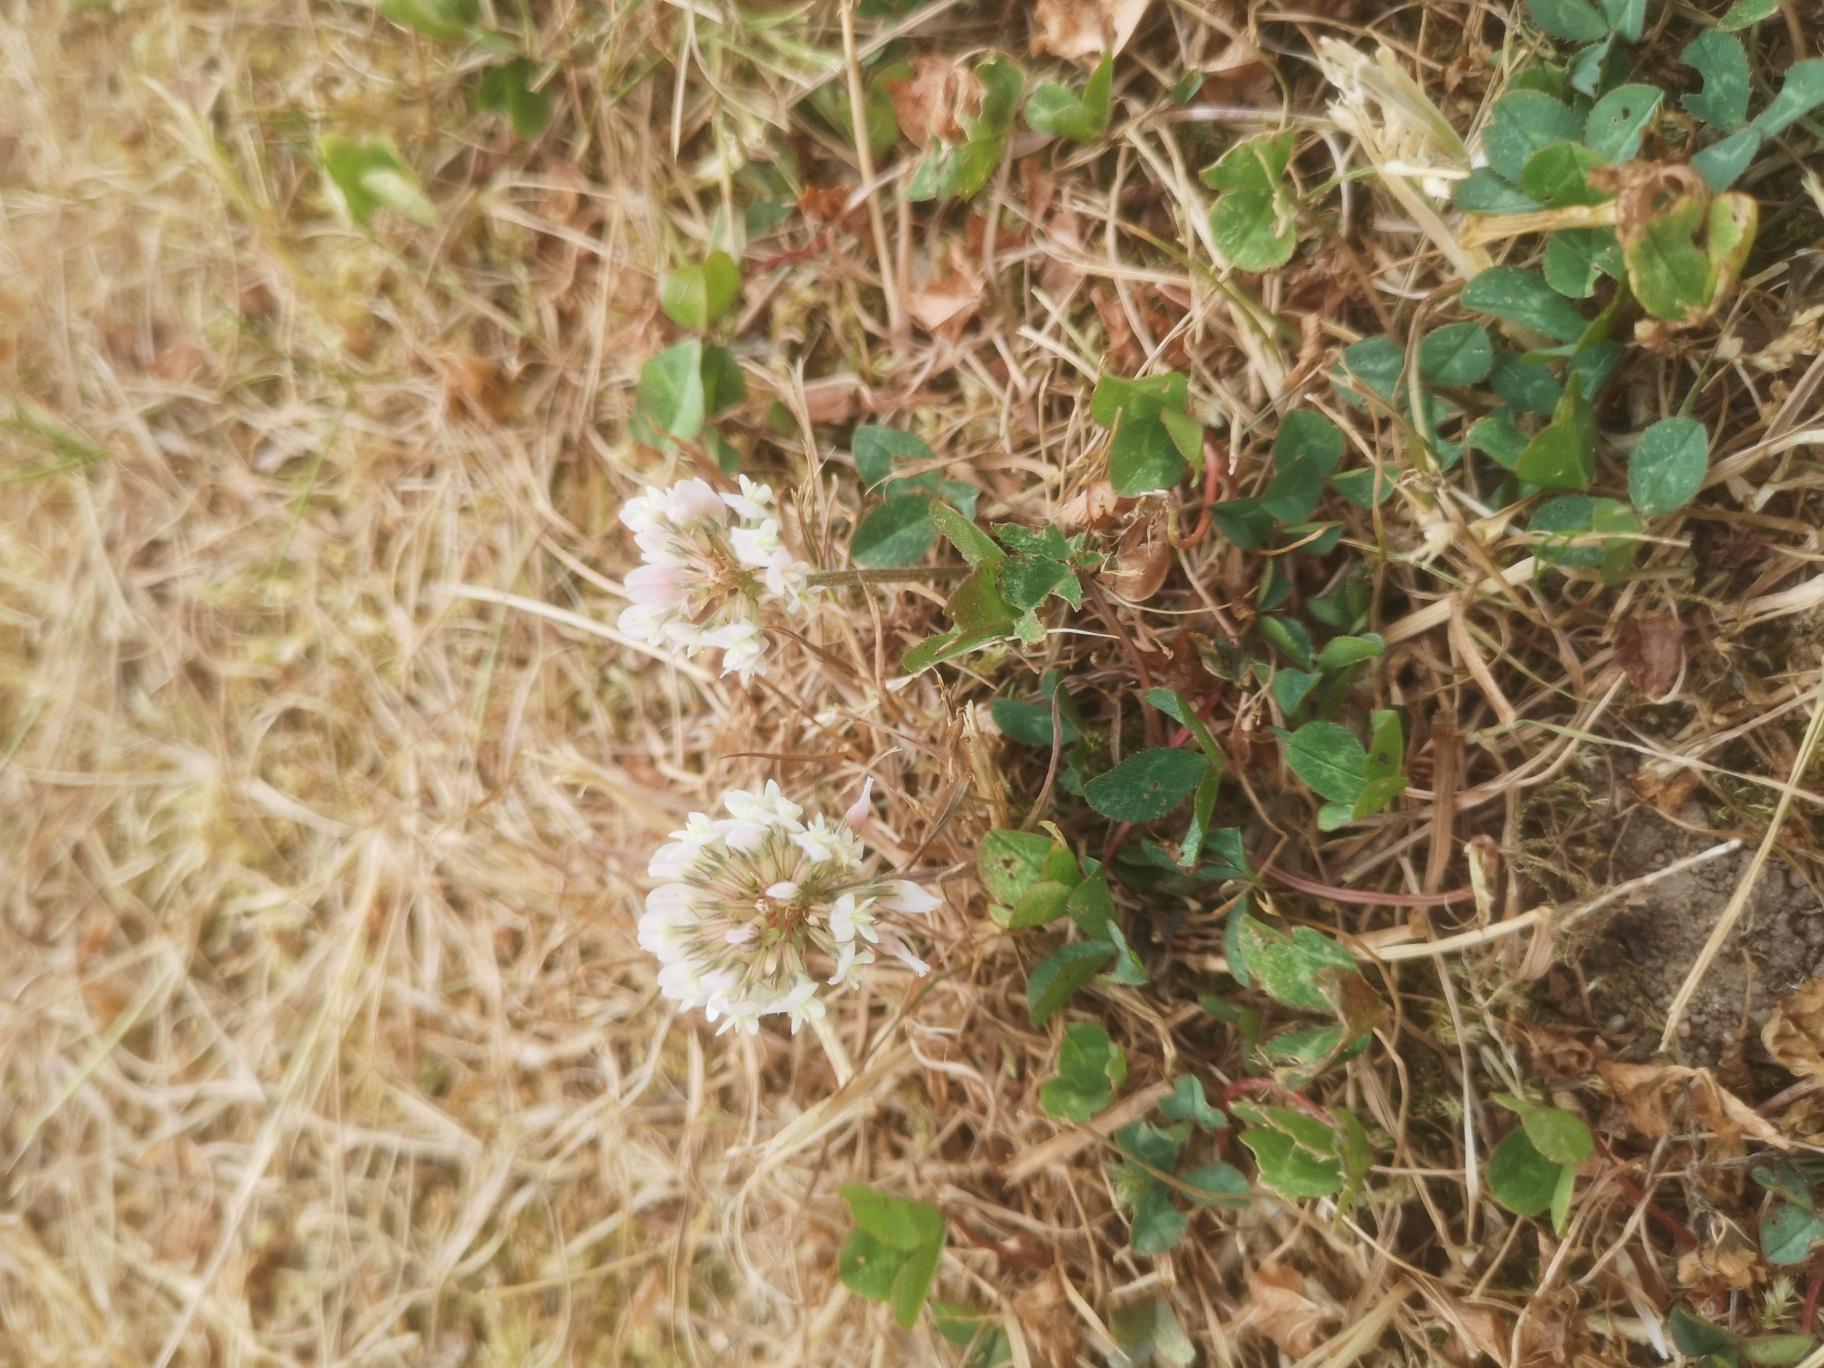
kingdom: Plantae
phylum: Tracheophyta
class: Magnoliopsida
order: Fabales
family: Fabaceae
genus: Trifolium
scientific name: Trifolium repens
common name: Hvid-kløver
